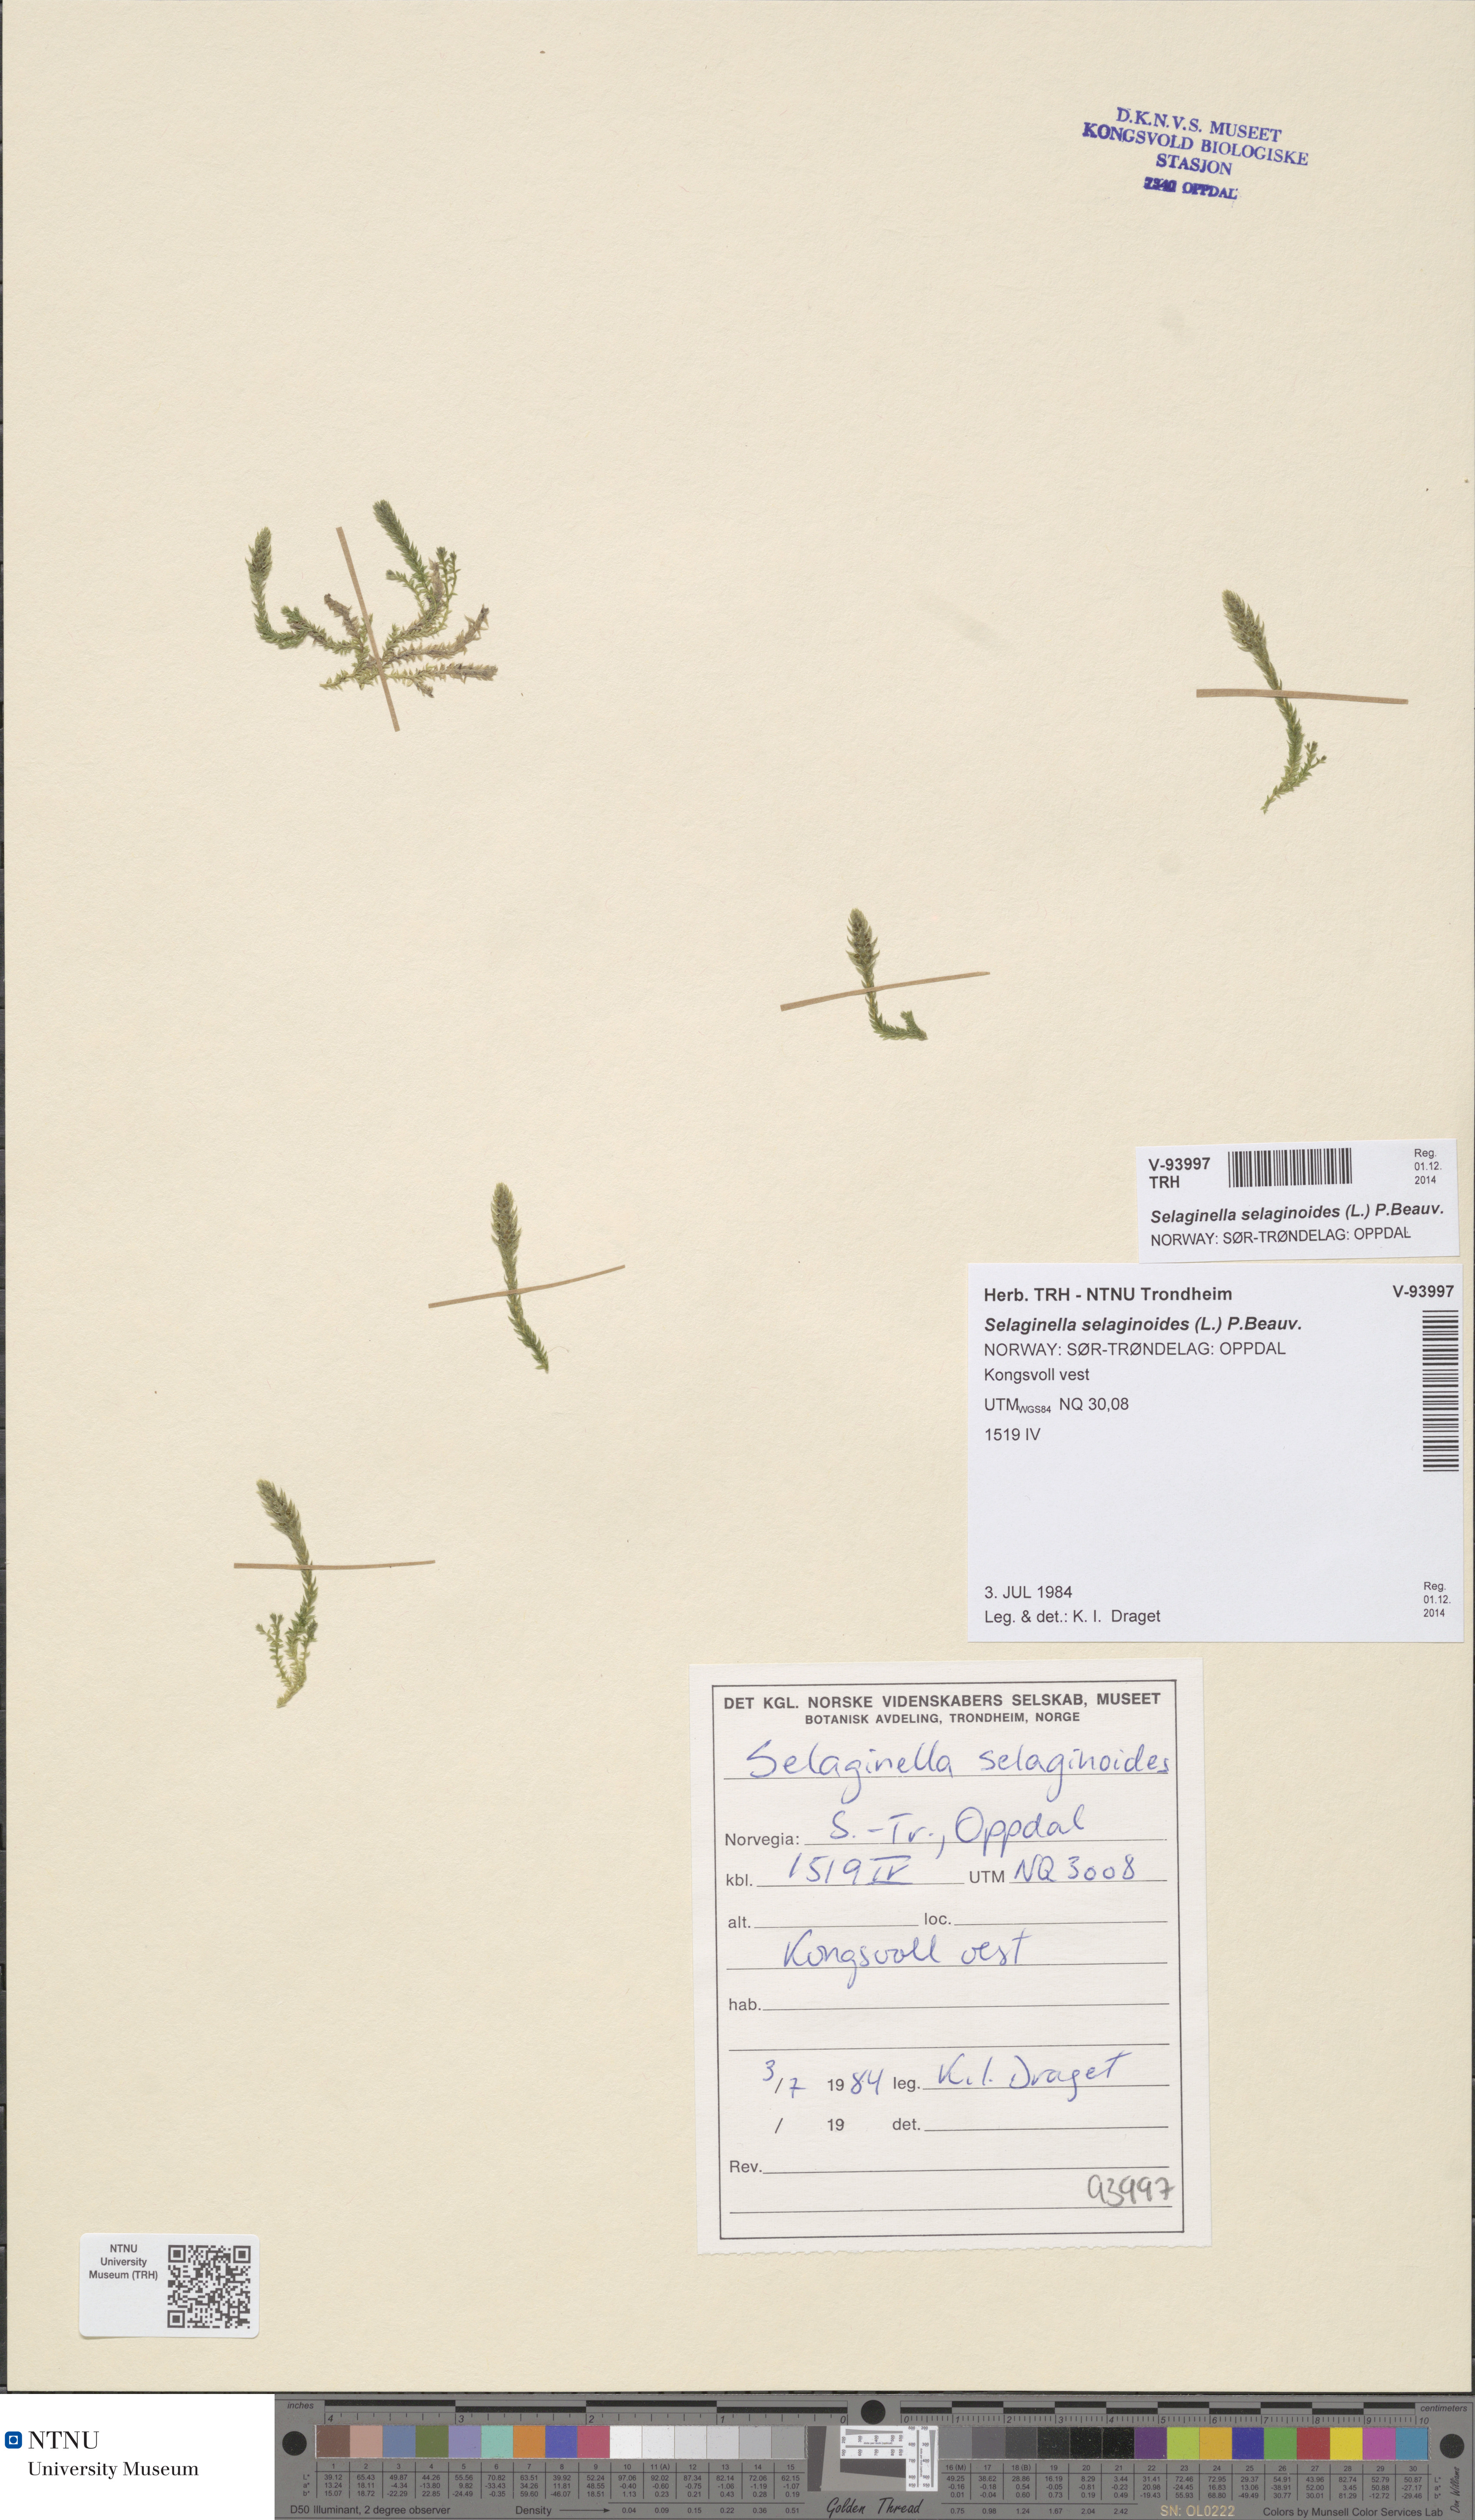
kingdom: Plantae
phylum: Tracheophyta
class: Lycopodiopsida
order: Selaginellales
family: Selaginellaceae
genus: Selaginella
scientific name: Selaginella selaginoides
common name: Prickly mountain-moss
